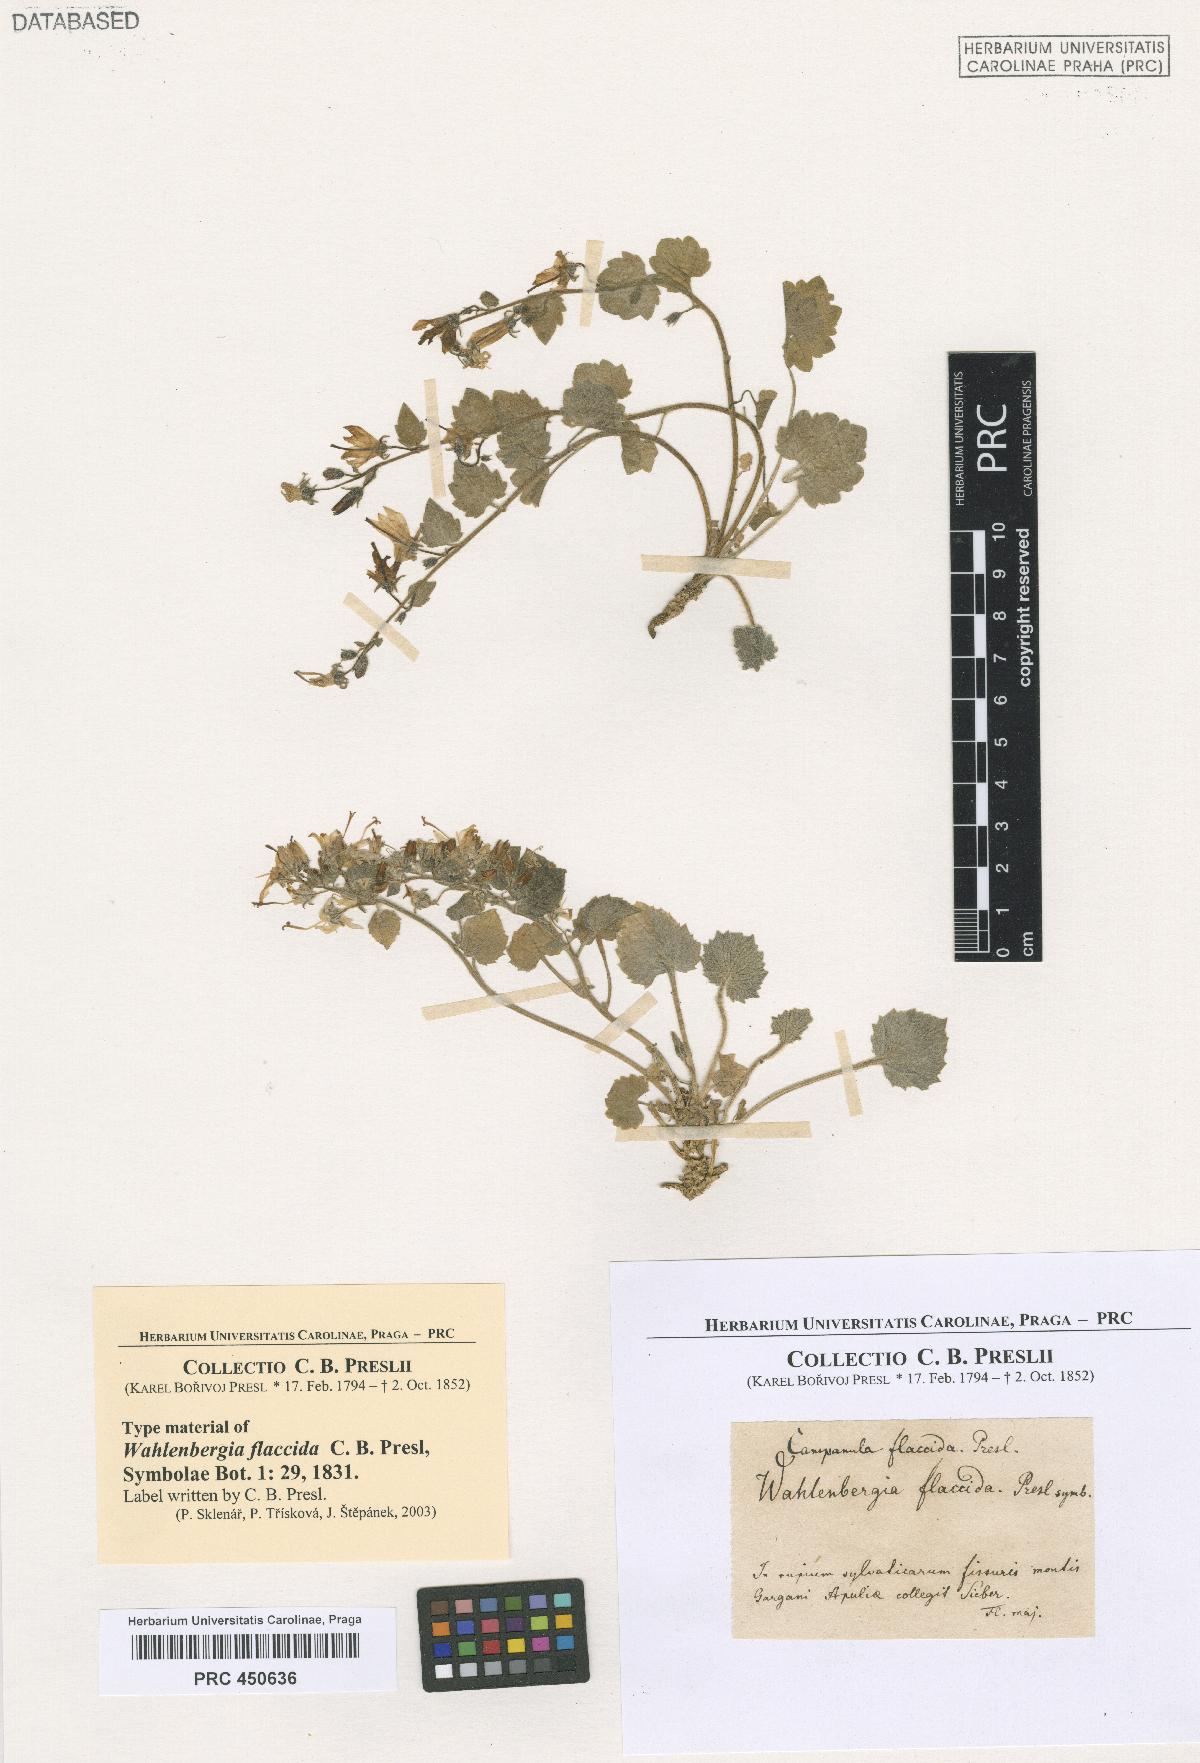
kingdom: Plantae
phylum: Tracheophyta
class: Magnoliopsida
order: Asterales
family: Campanulaceae
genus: Campanula
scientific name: Campanula garganica
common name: Adriatic bellflower
